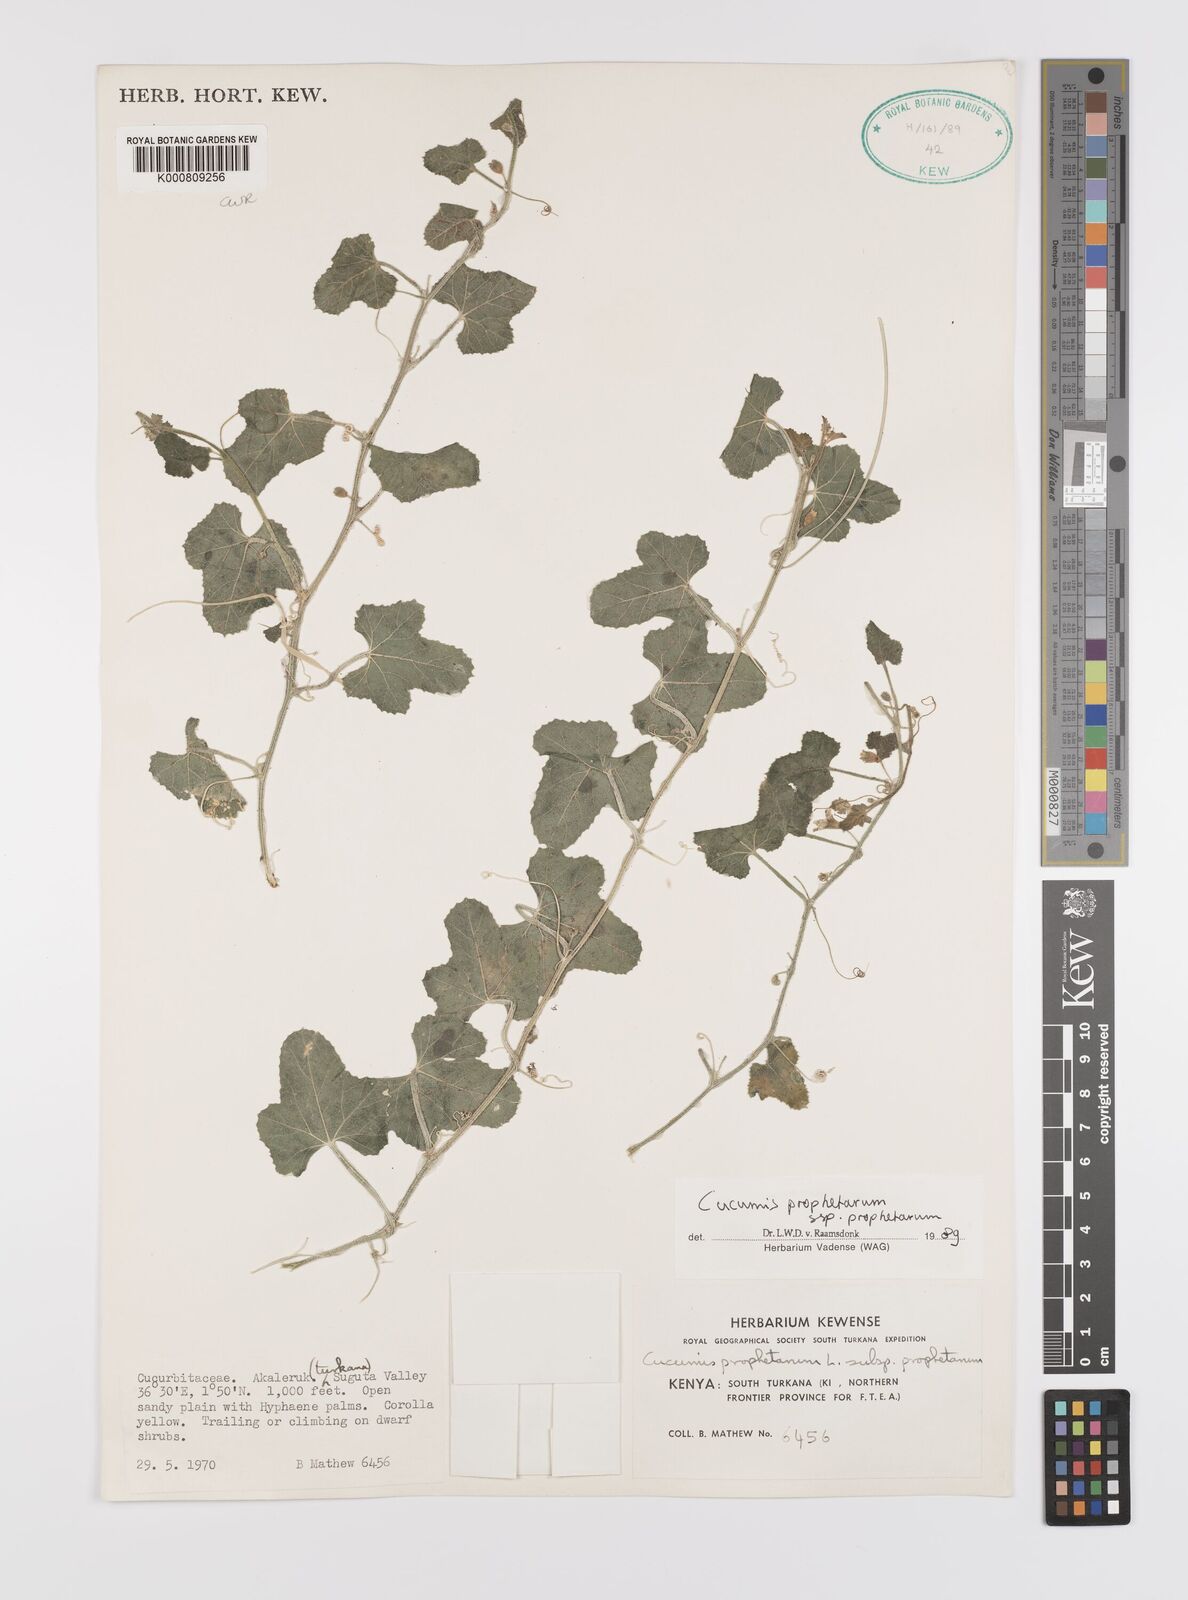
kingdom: Plantae
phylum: Tracheophyta
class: Magnoliopsida
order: Cucurbitales
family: Cucurbitaceae
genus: Cucumis
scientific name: Cucumis prophetarum
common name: Wild cucumber
